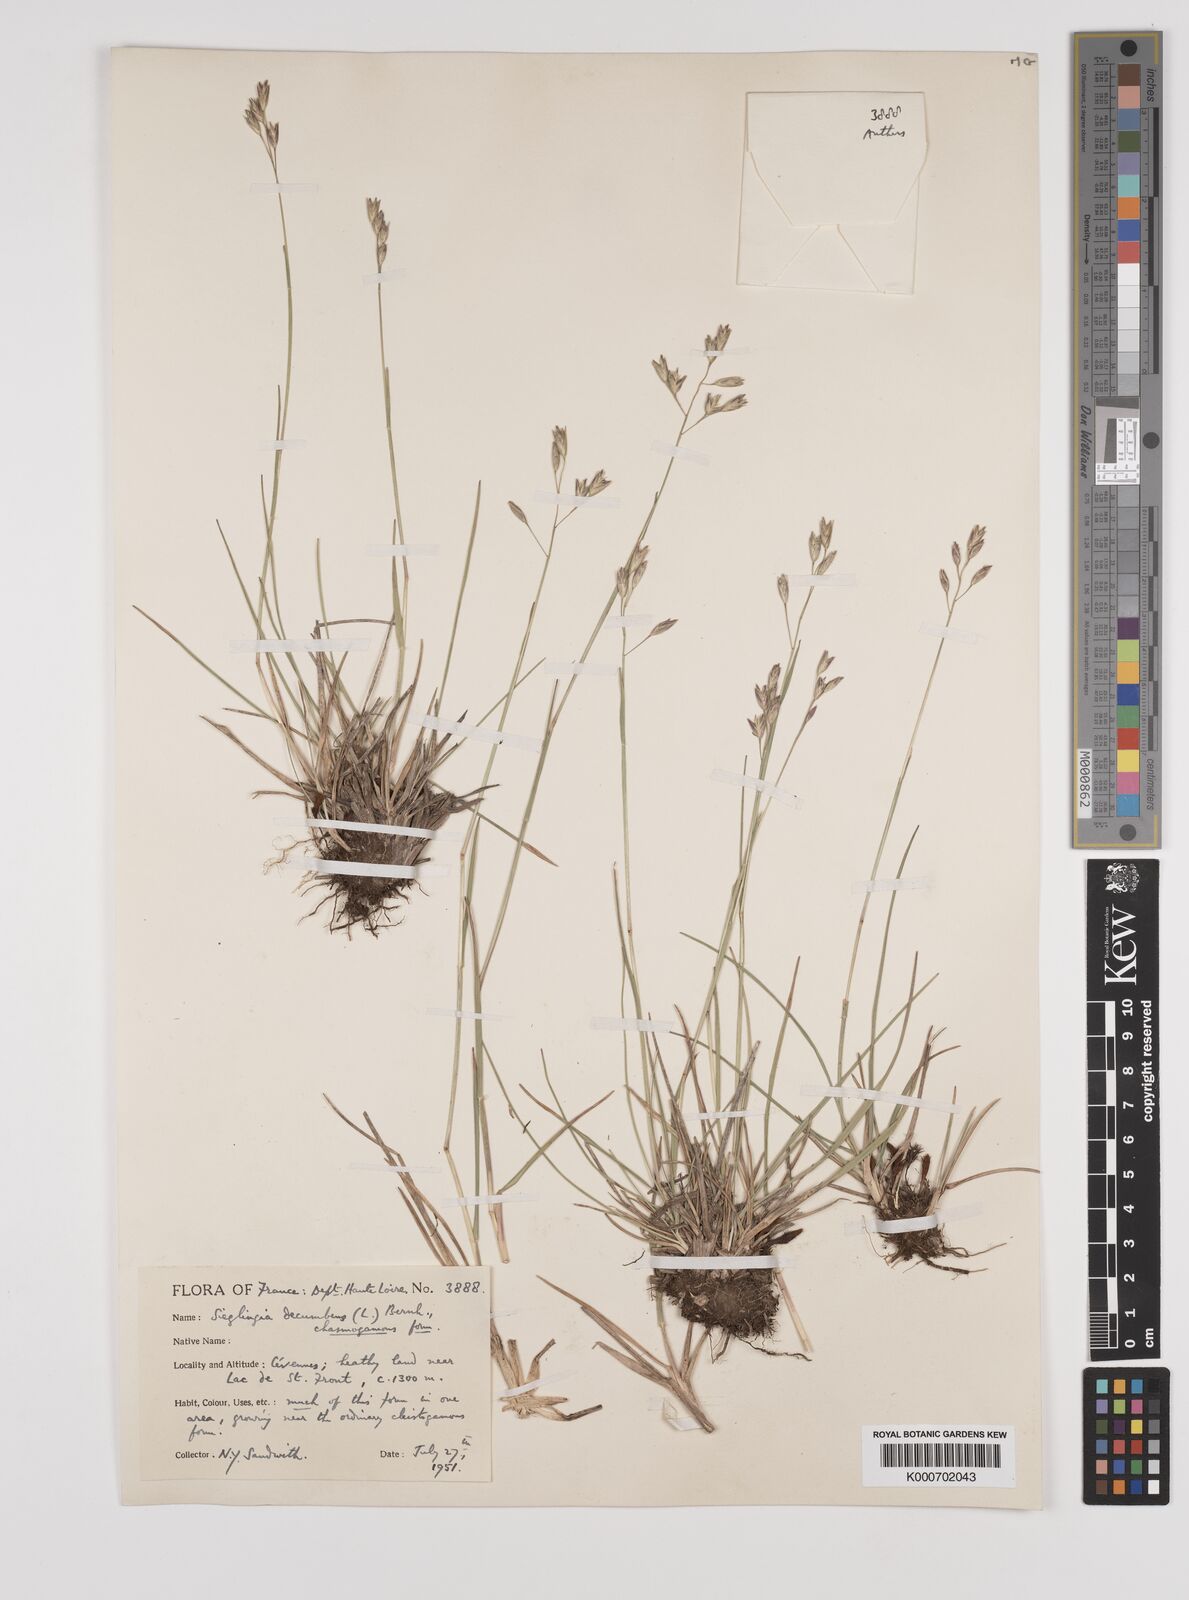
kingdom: Plantae
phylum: Tracheophyta
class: Liliopsida
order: Poales
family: Poaceae
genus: Danthonia
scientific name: Danthonia decumbens
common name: Common heathgrass
